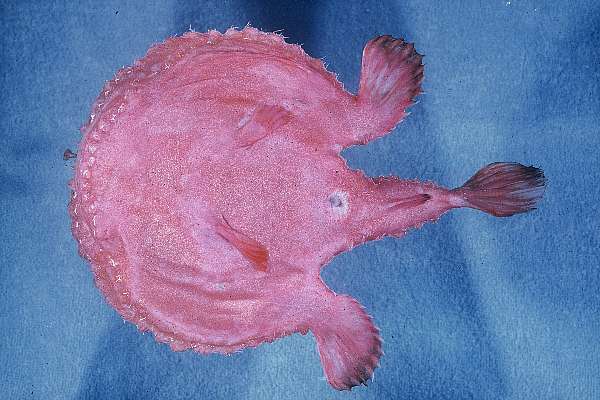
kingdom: Animalia
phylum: Chordata
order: Lophiiformes
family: Ogcocephalidae
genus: Halieutaea
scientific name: Halieutaea stellata
